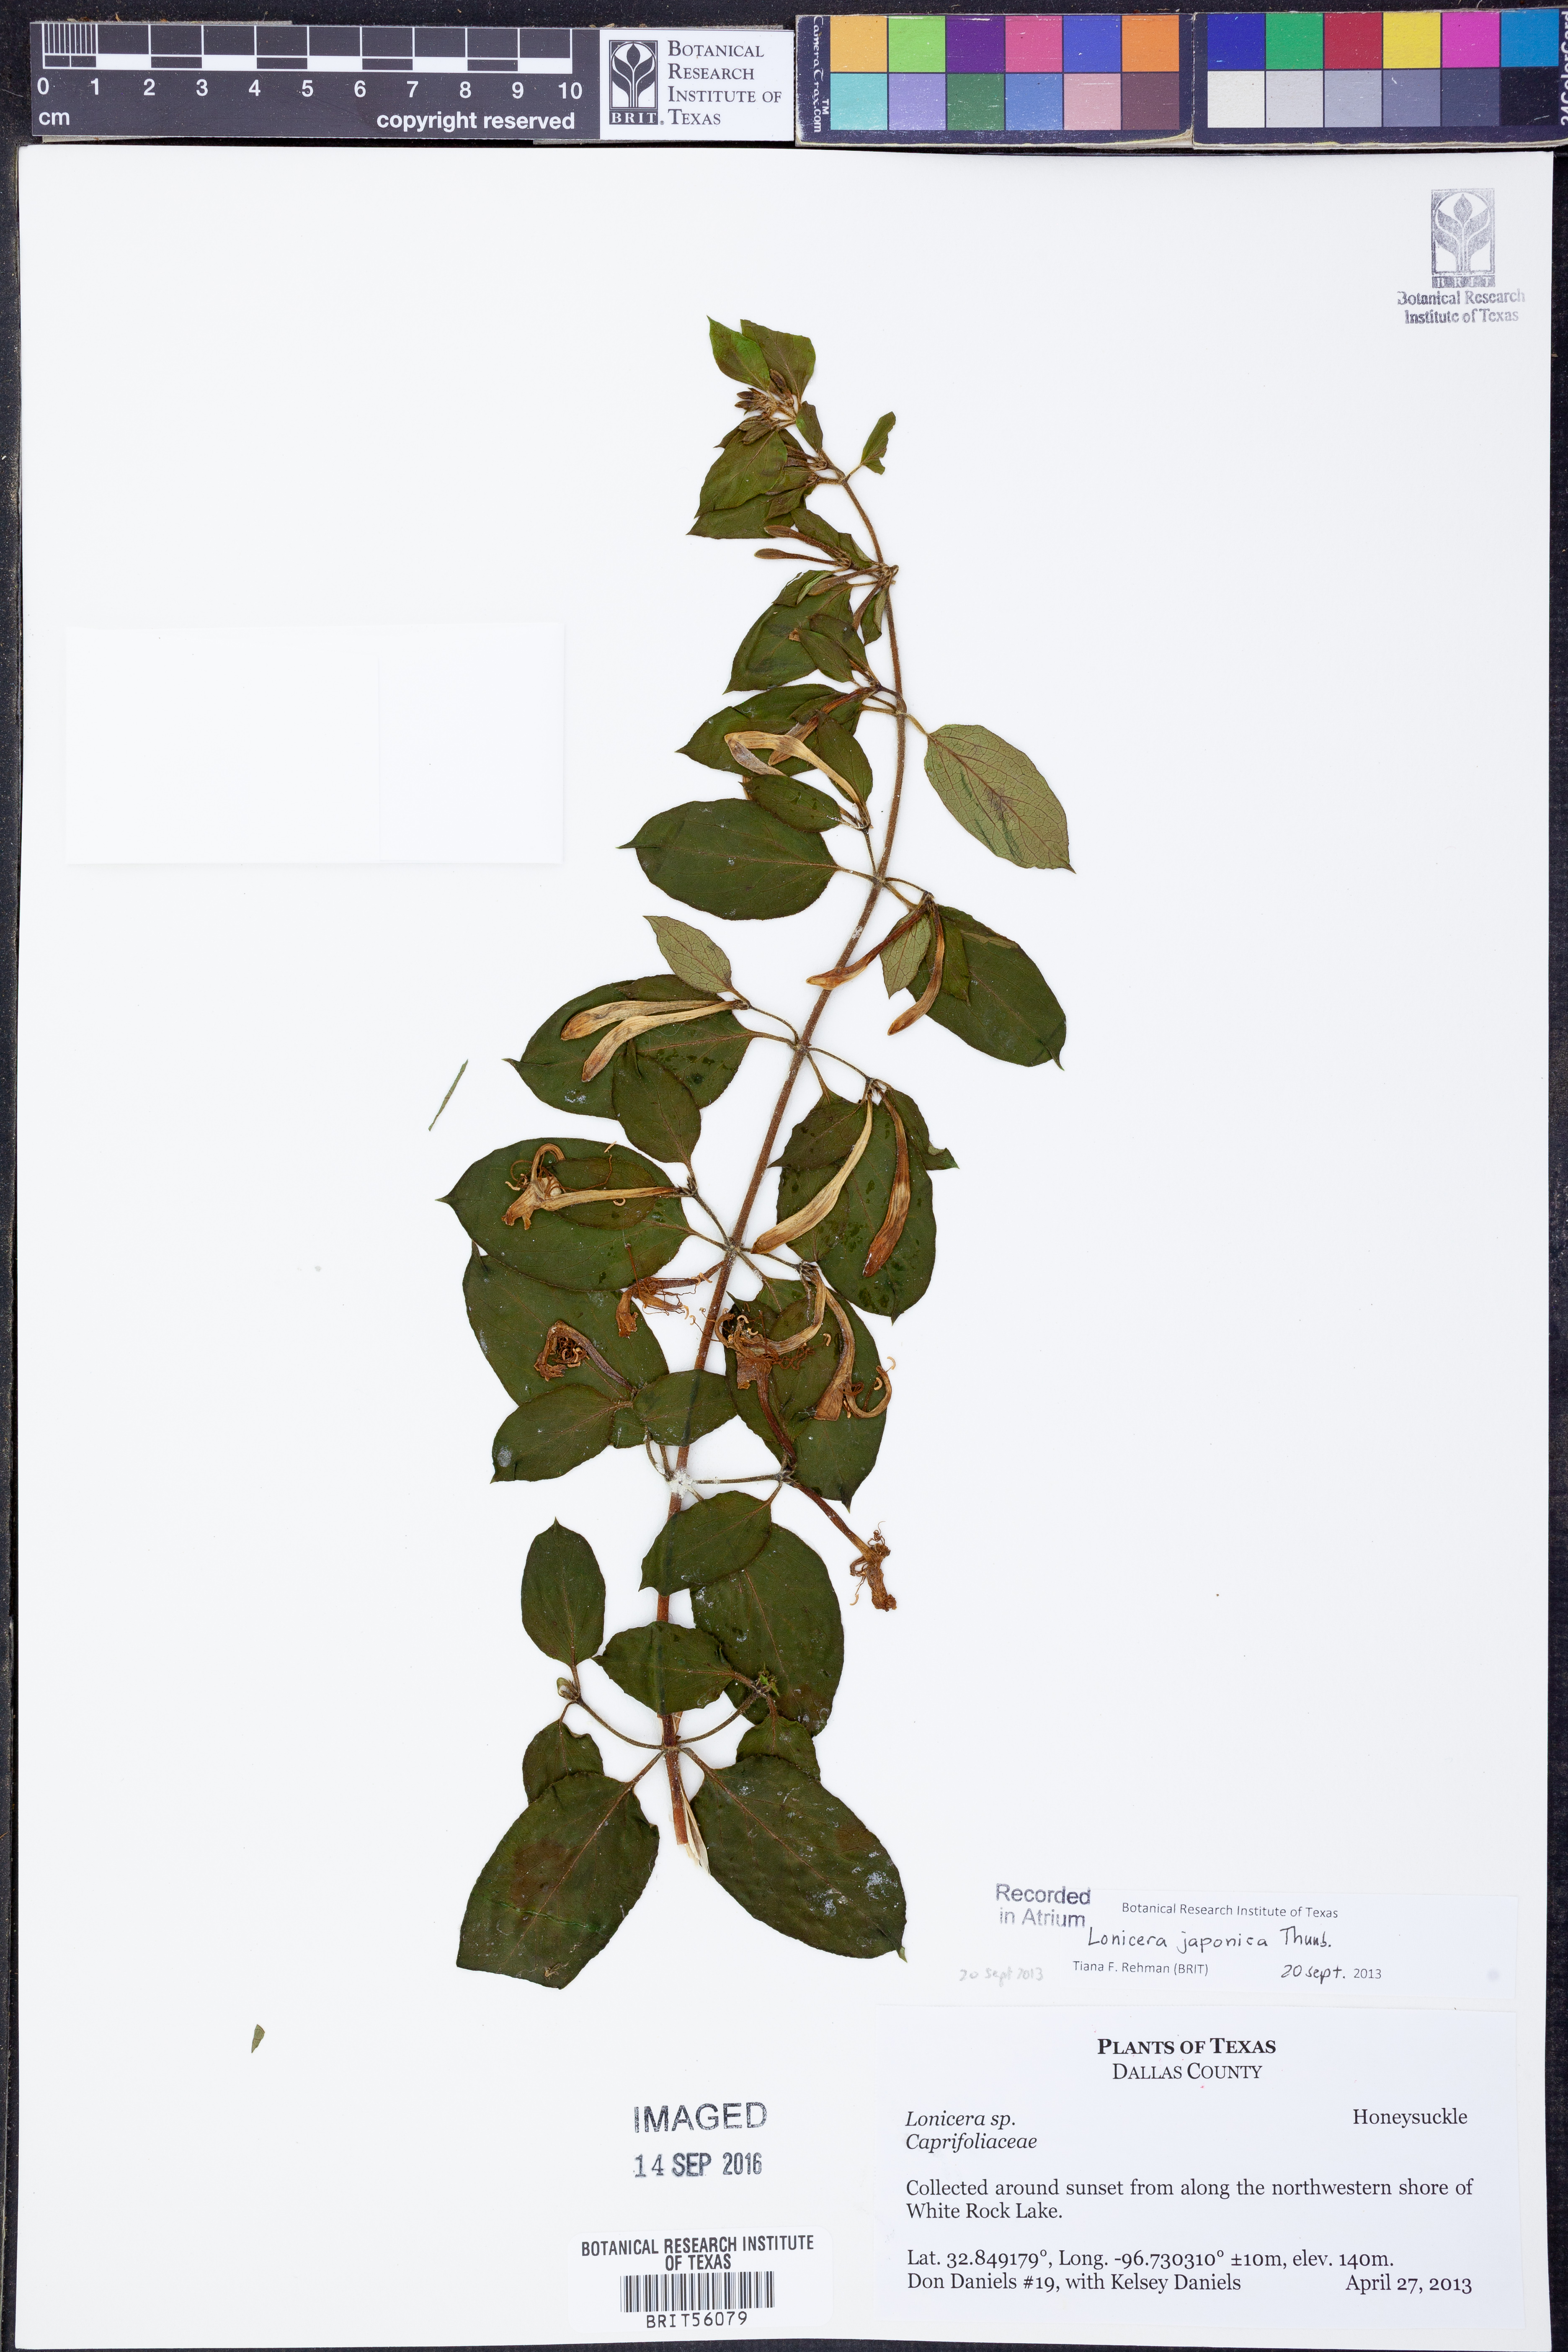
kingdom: Plantae
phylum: Tracheophyta
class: Magnoliopsida
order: Dipsacales
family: Caprifoliaceae
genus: Lonicera
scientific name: Lonicera japonica
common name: Japanese honeysuckle
